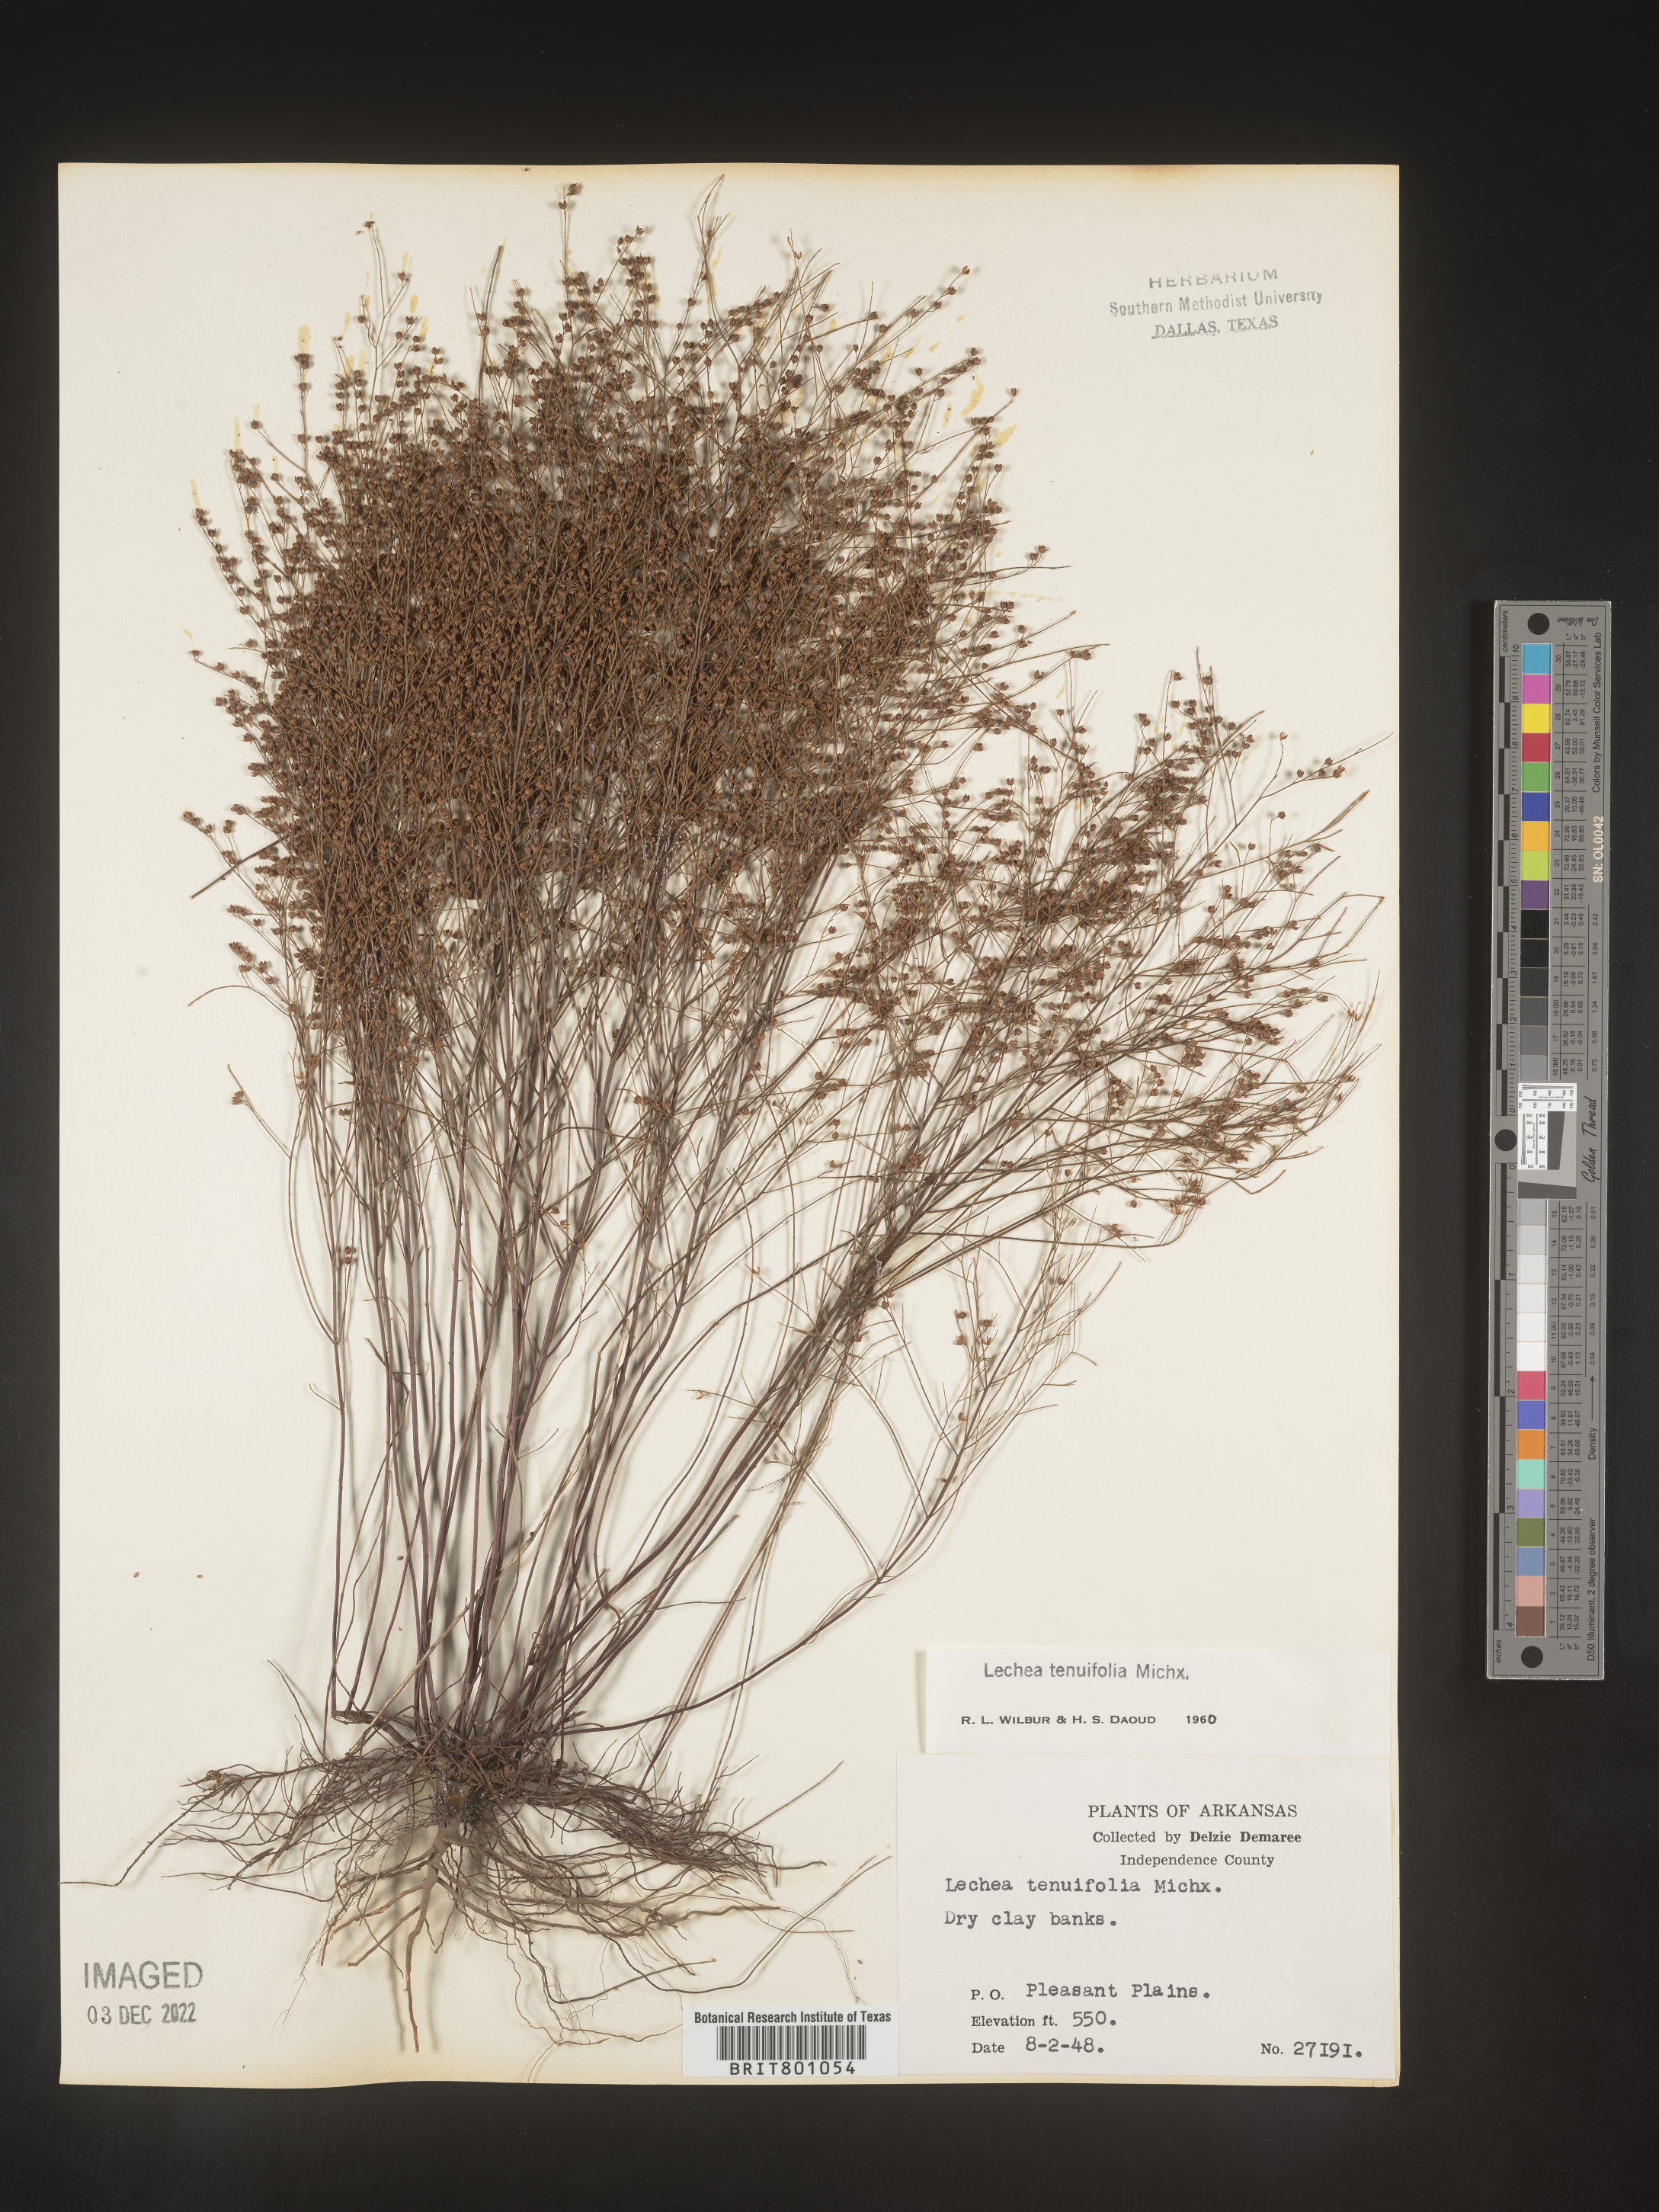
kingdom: Plantae
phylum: Tracheophyta
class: Magnoliopsida
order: Malvales
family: Cistaceae
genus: Lechea
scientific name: Lechea tenuifolia
